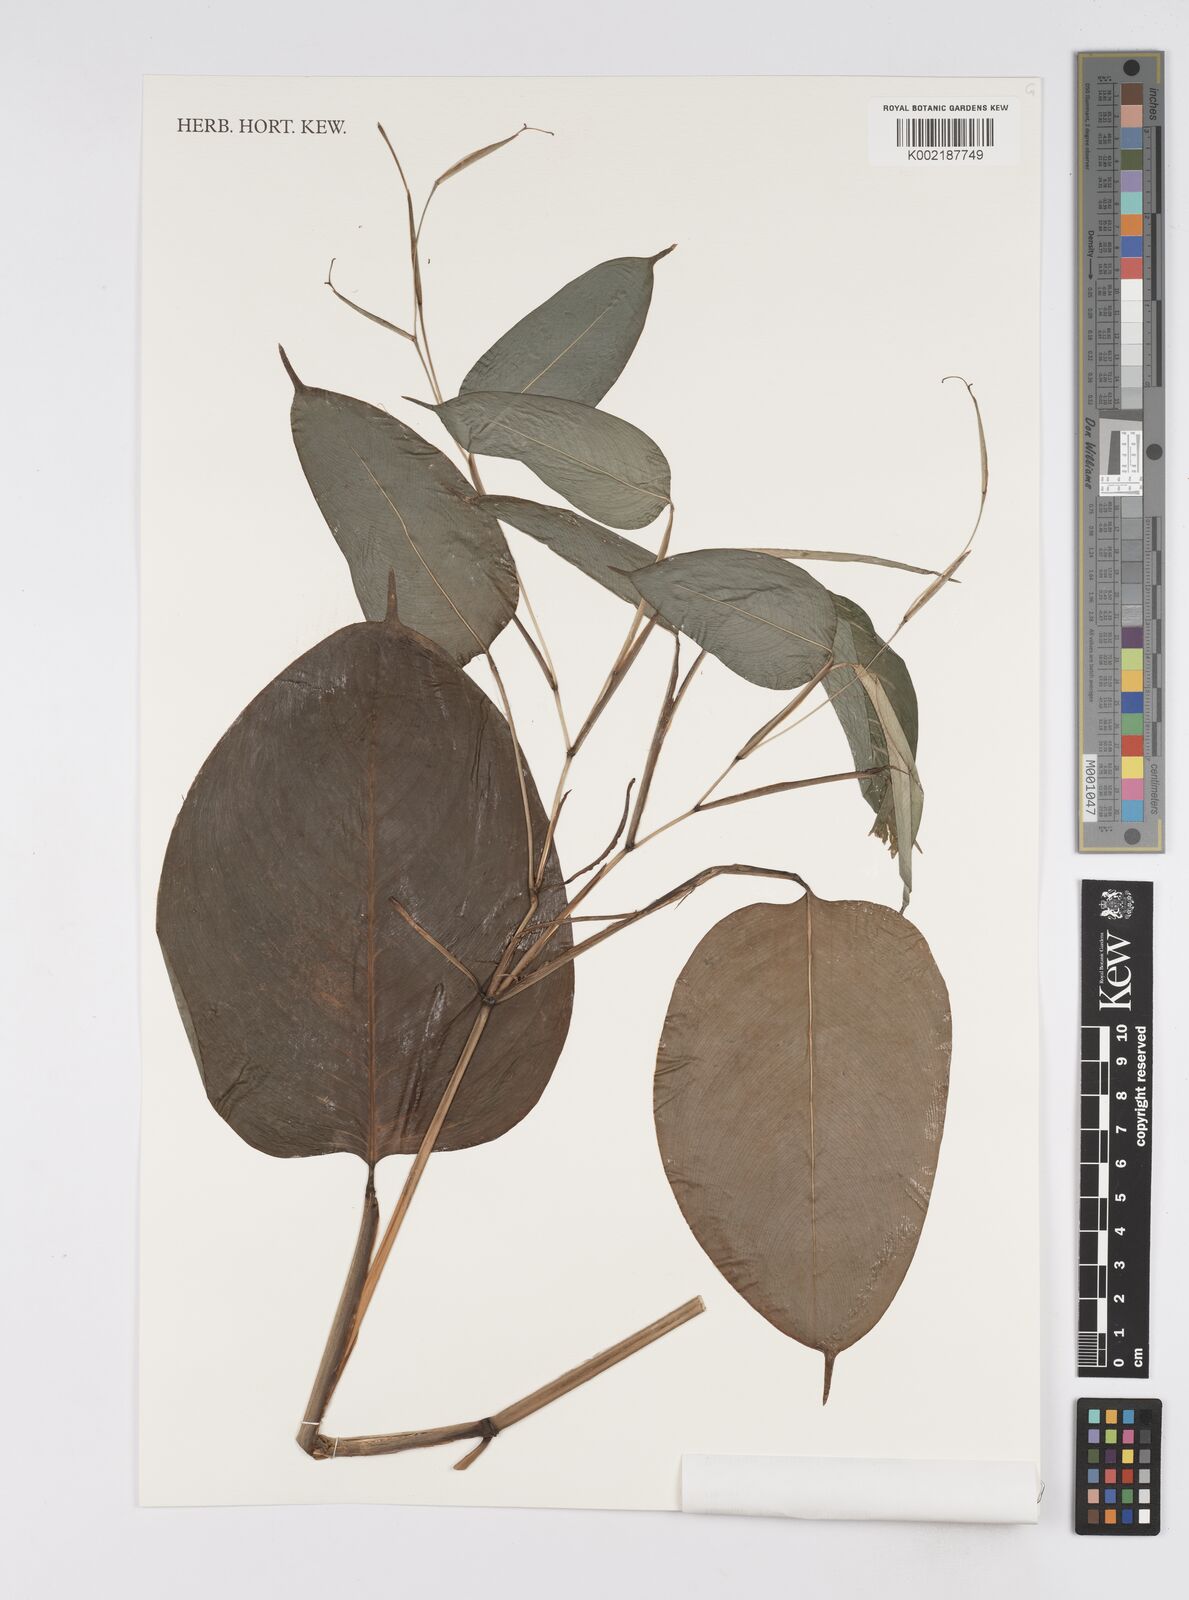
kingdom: Plantae
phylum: Tracheophyta
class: Liliopsida
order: Zingiberales
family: Marantaceae
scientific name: Marantaceae
